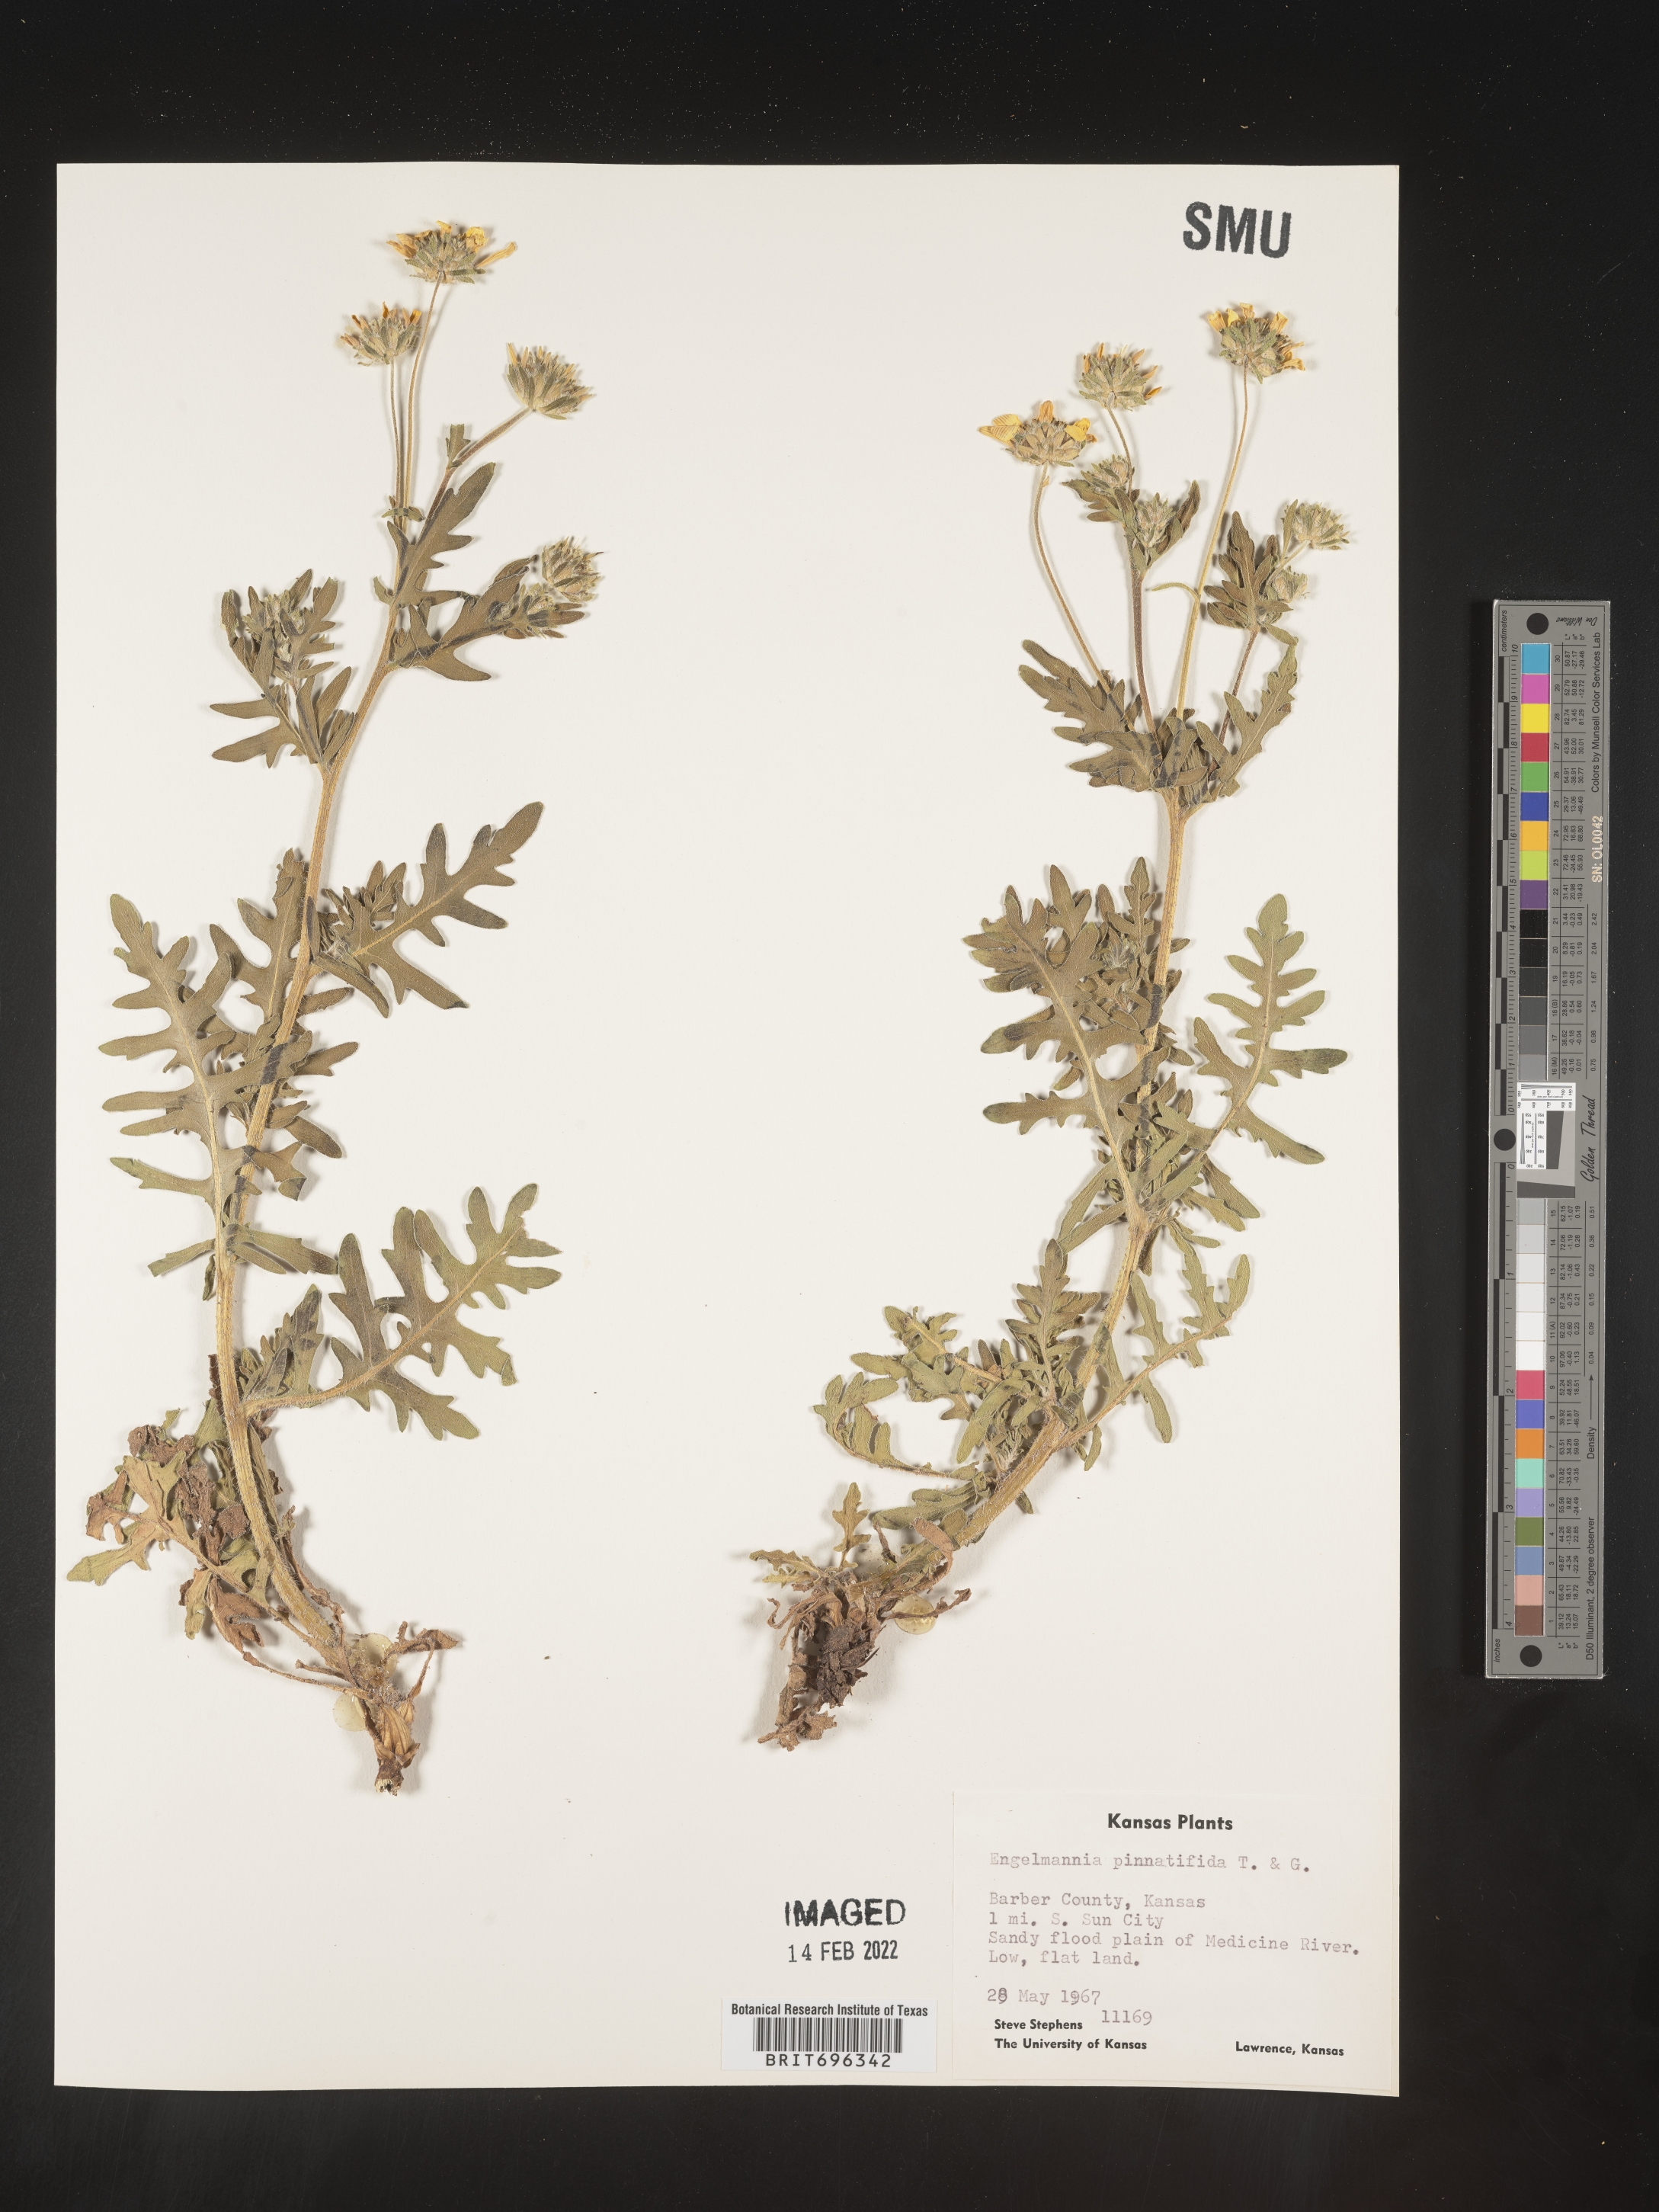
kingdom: Plantae
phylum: Tracheophyta
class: Magnoliopsida
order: Asterales
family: Asteraceae
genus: Engelmannia
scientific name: Engelmannia peristenia
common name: Engelmann's daisy
